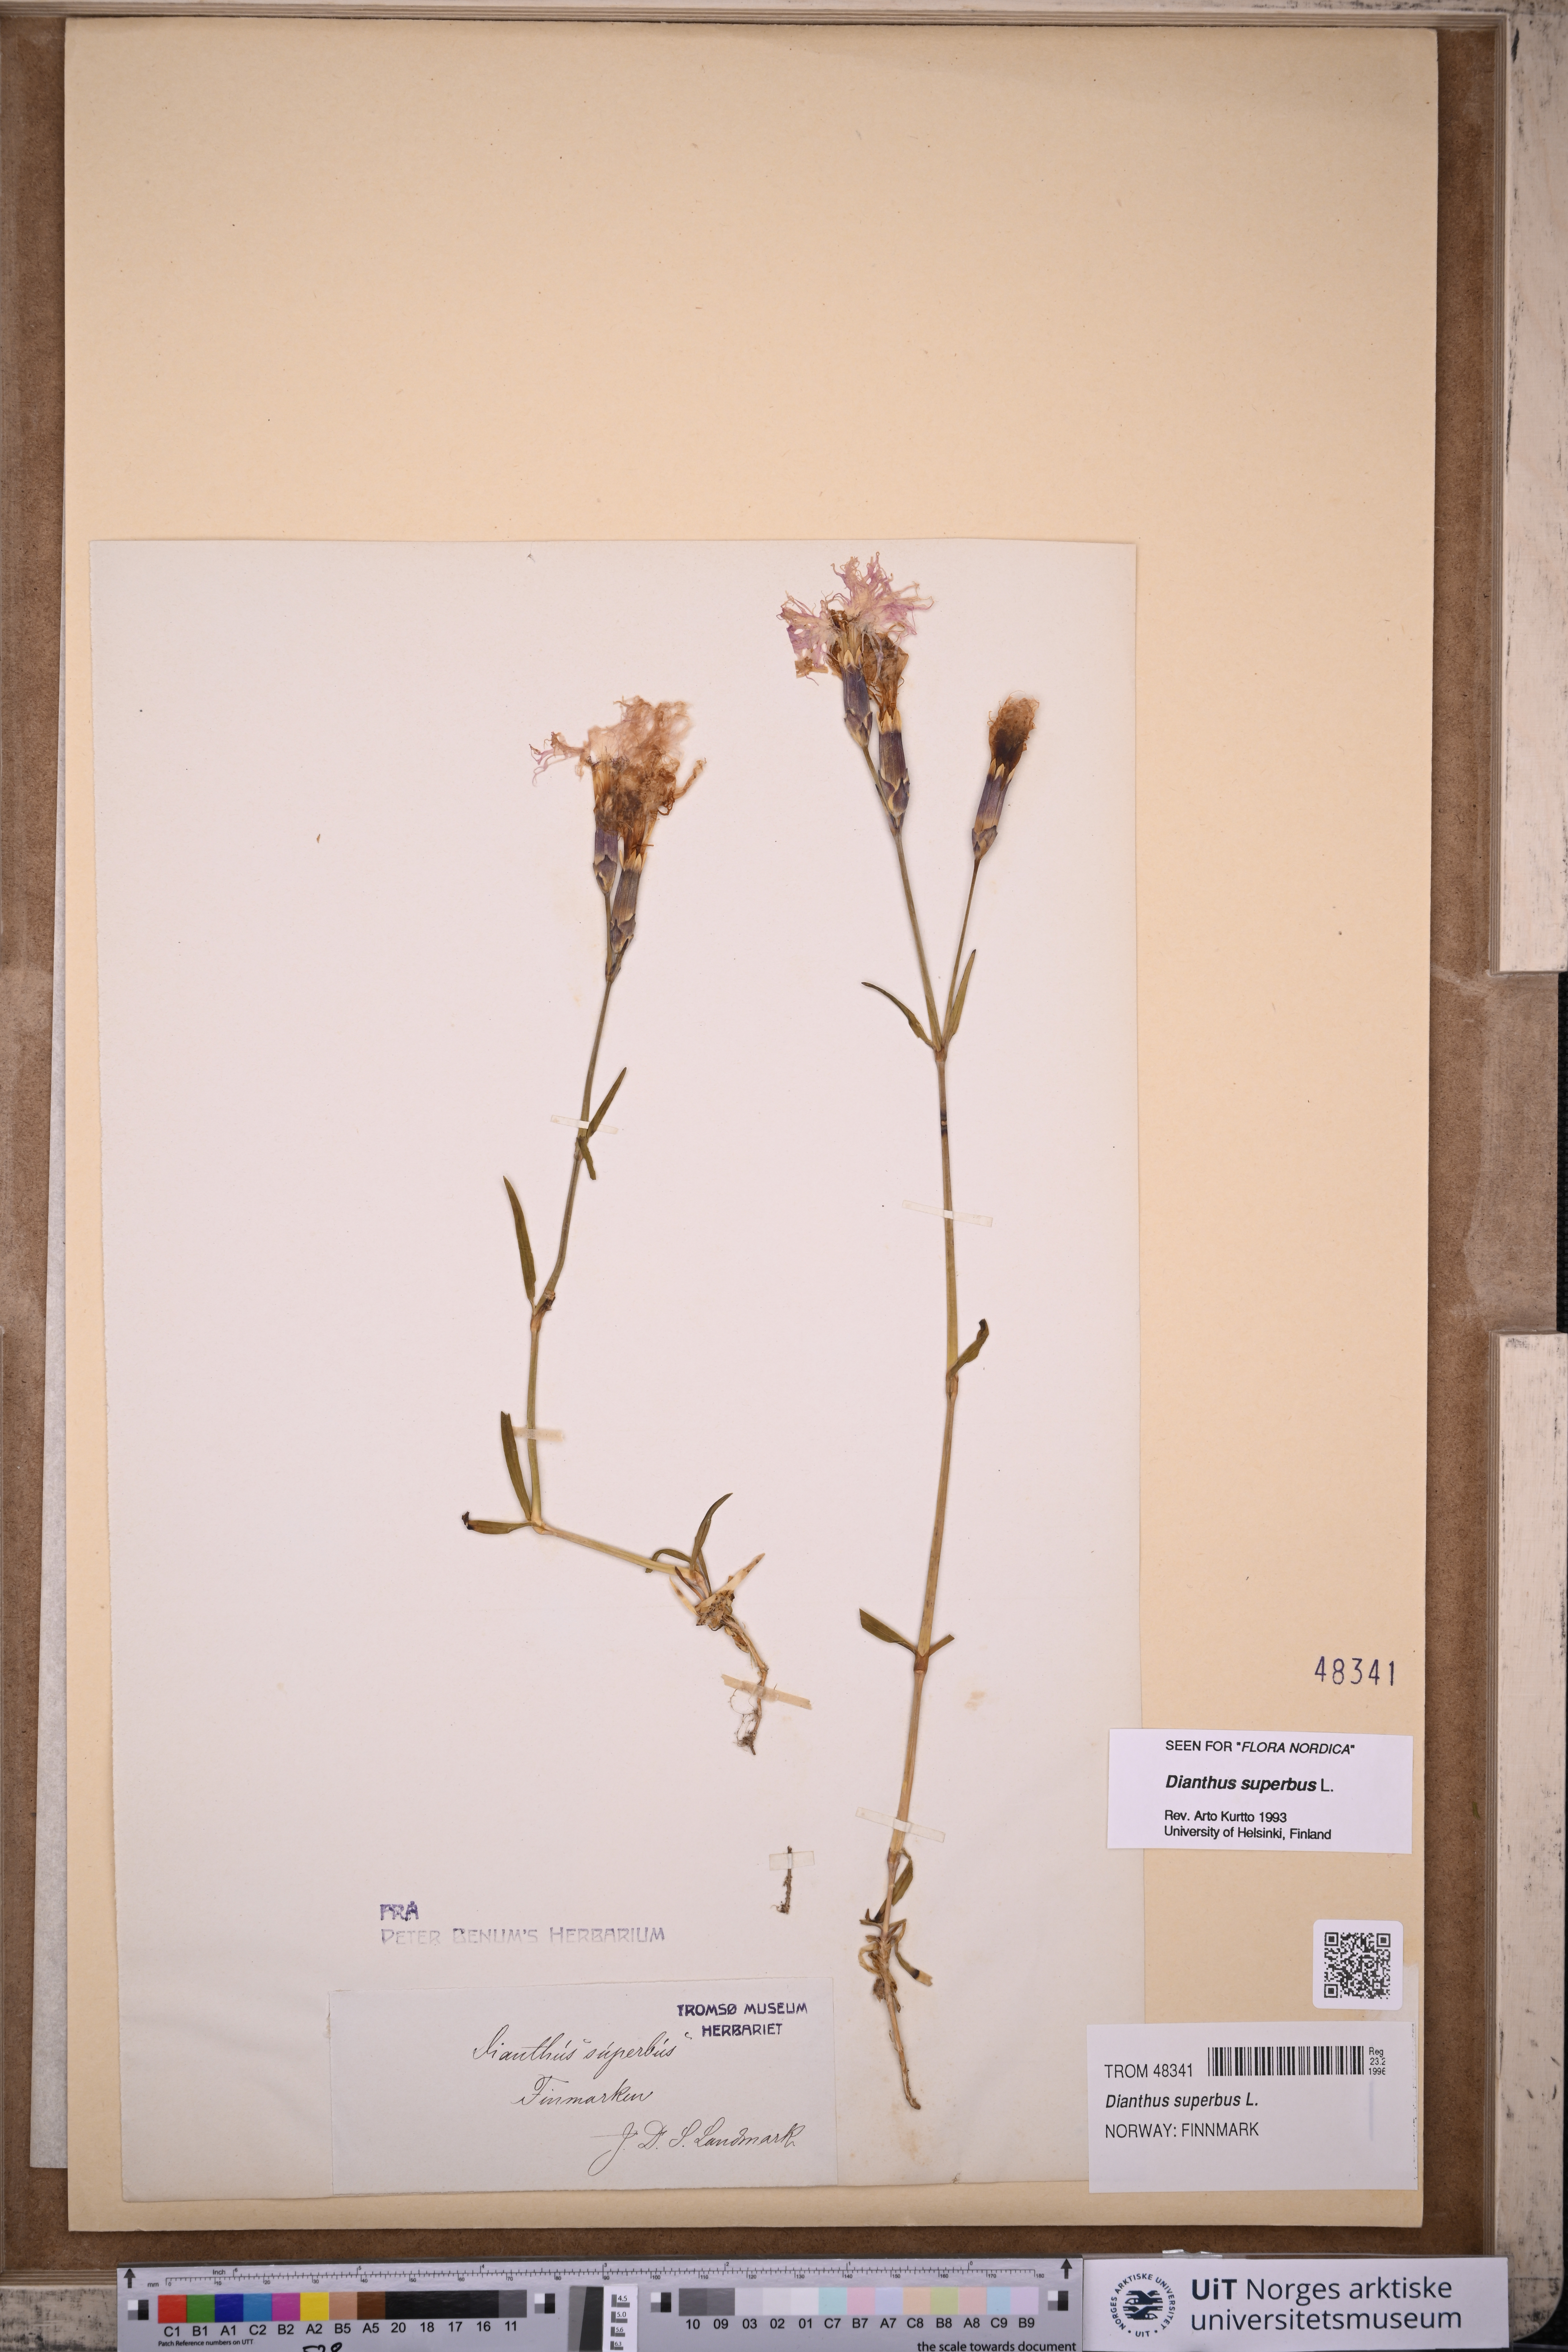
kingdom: Plantae
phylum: Tracheophyta
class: Magnoliopsida
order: Caryophyllales
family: Caryophyllaceae
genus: Dianthus
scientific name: Dianthus superbus
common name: Fringed pink
